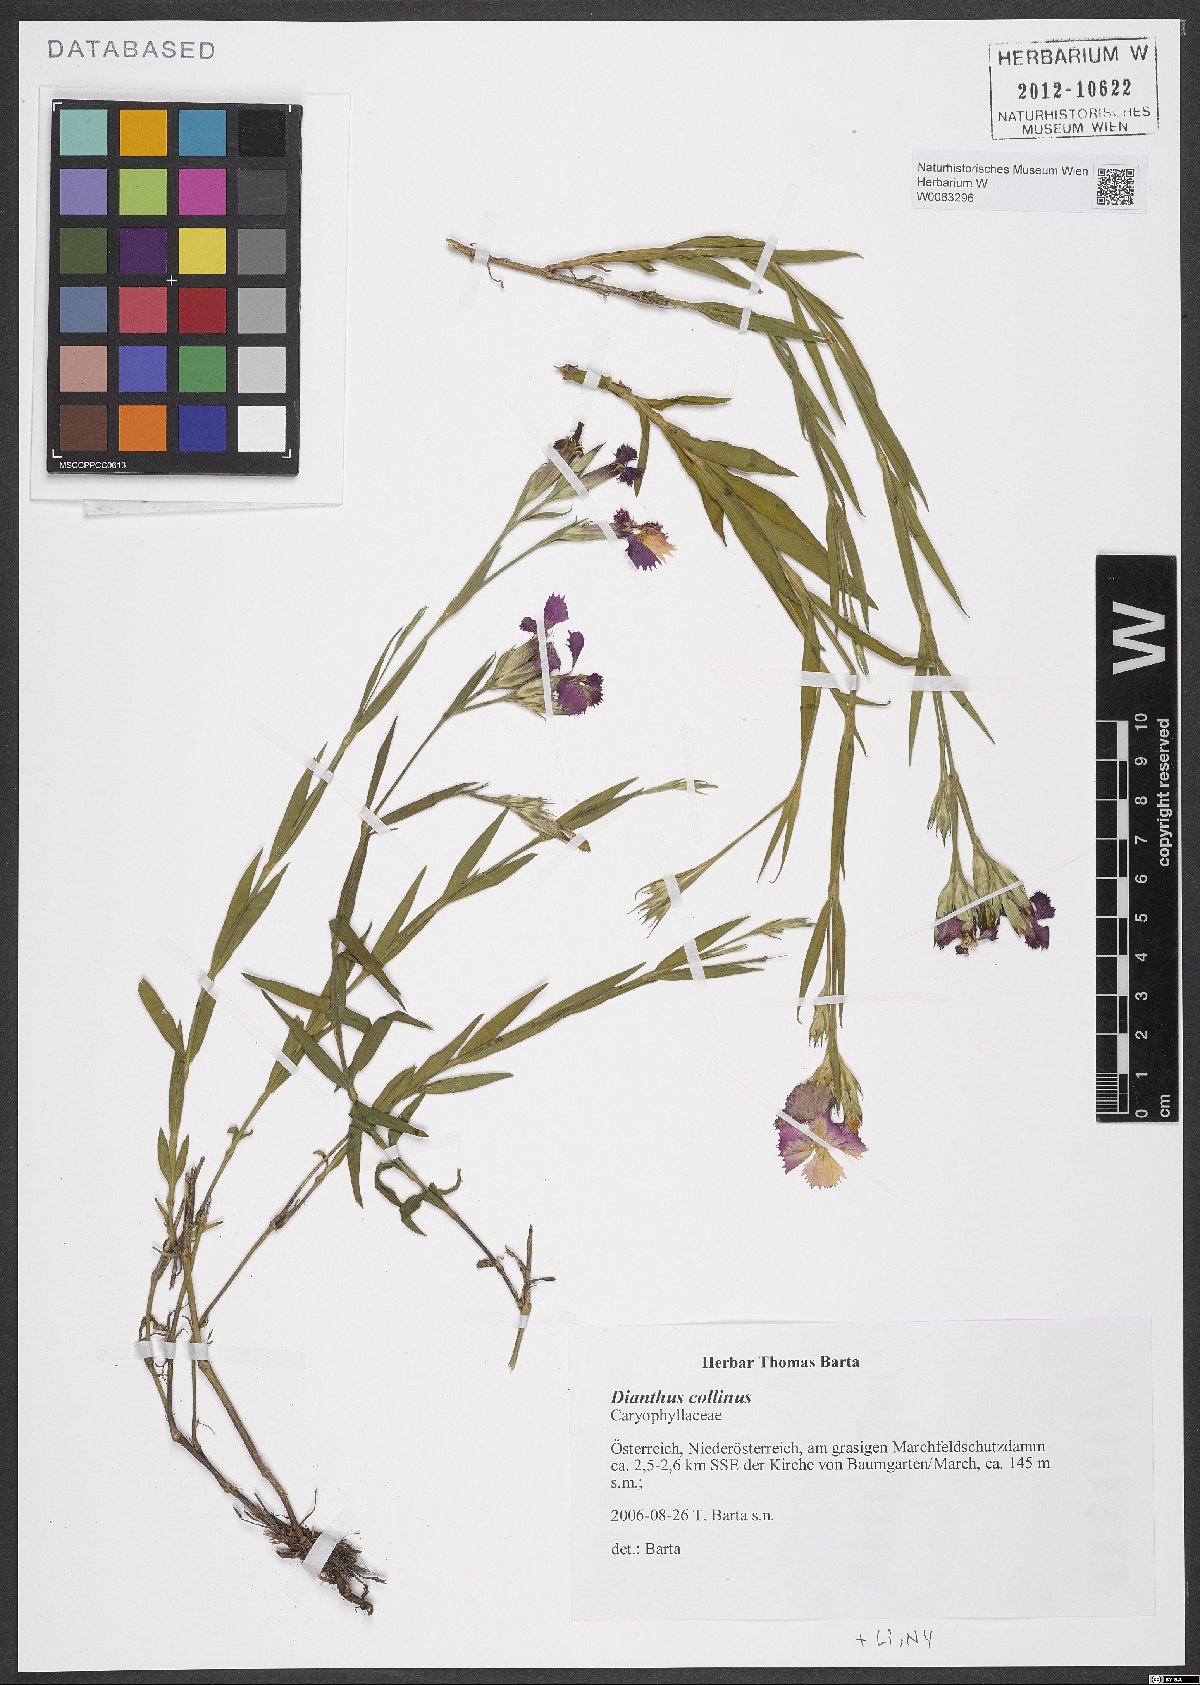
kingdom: Plantae
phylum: Tracheophyta
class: Magnoliopsida
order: Caryophyllales
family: Caryophyllaceae
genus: Dianthus
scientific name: Dianthus collinus
